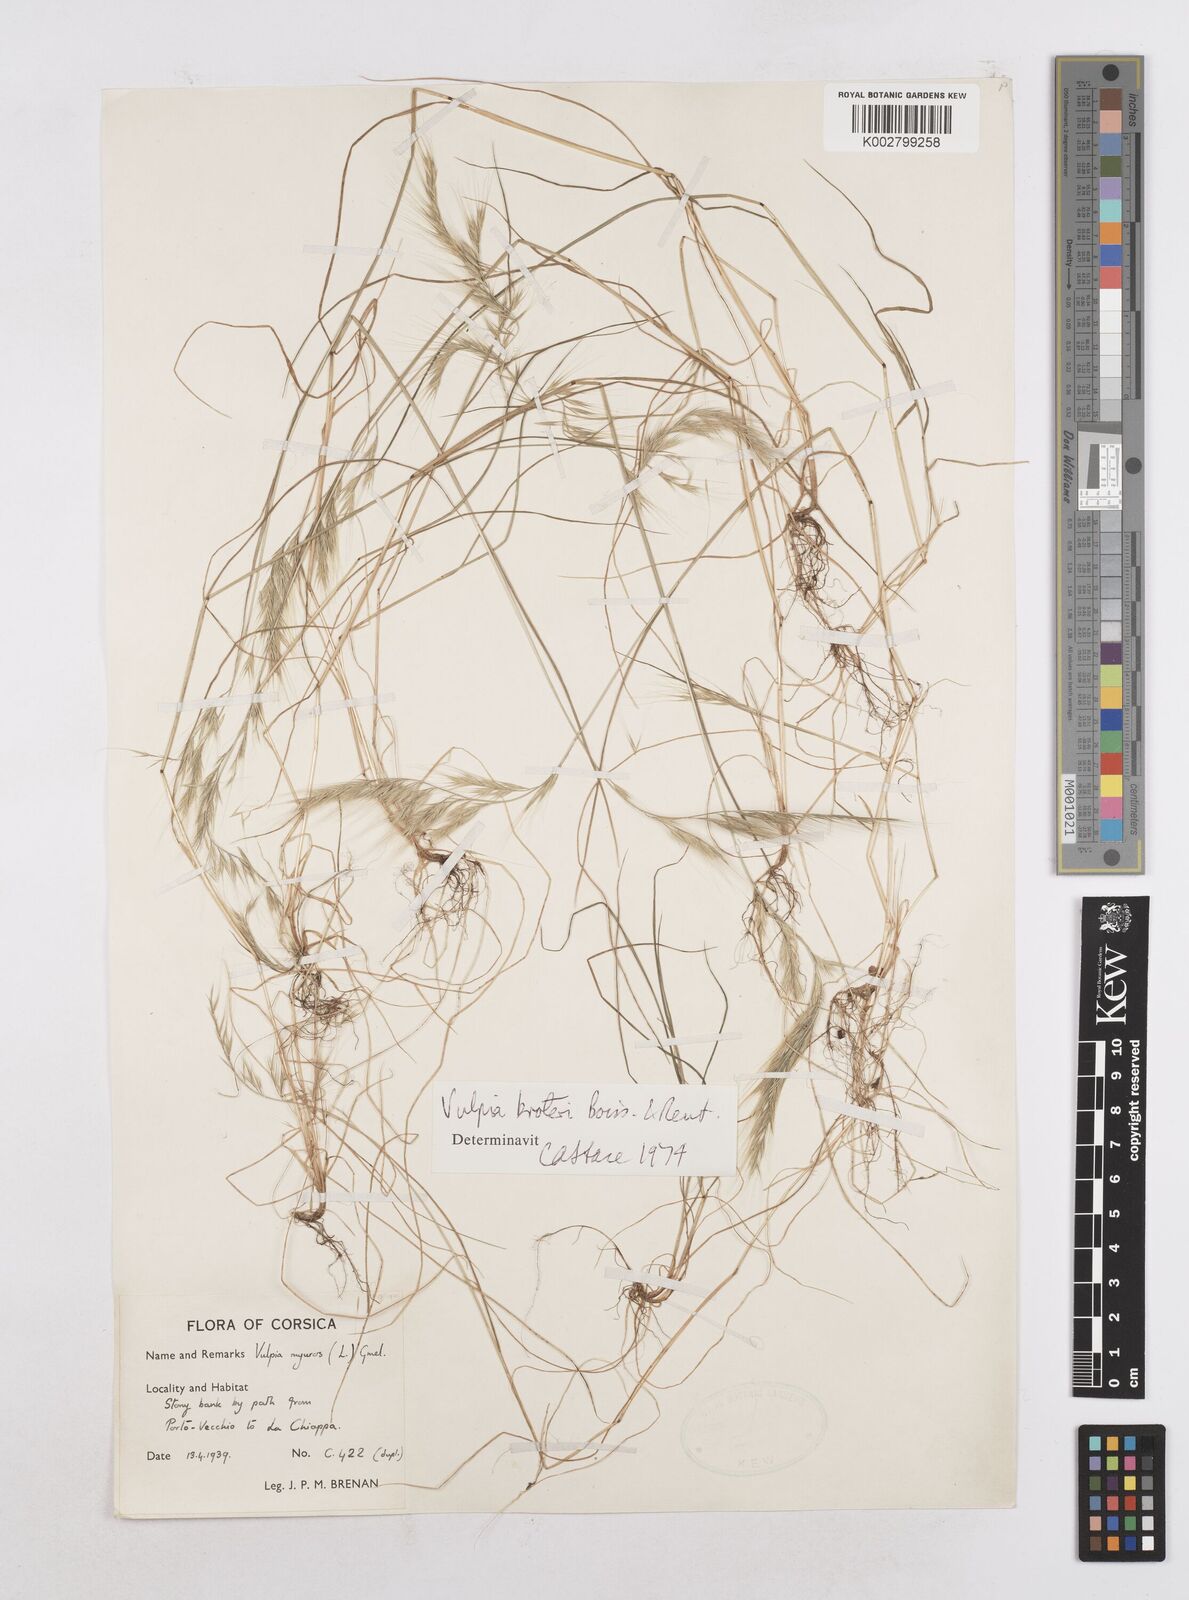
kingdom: Plantae
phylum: Tracheophyta
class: Liliopsida
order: Poales
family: Poaceae
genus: Festuca
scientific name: Festuca muralis
